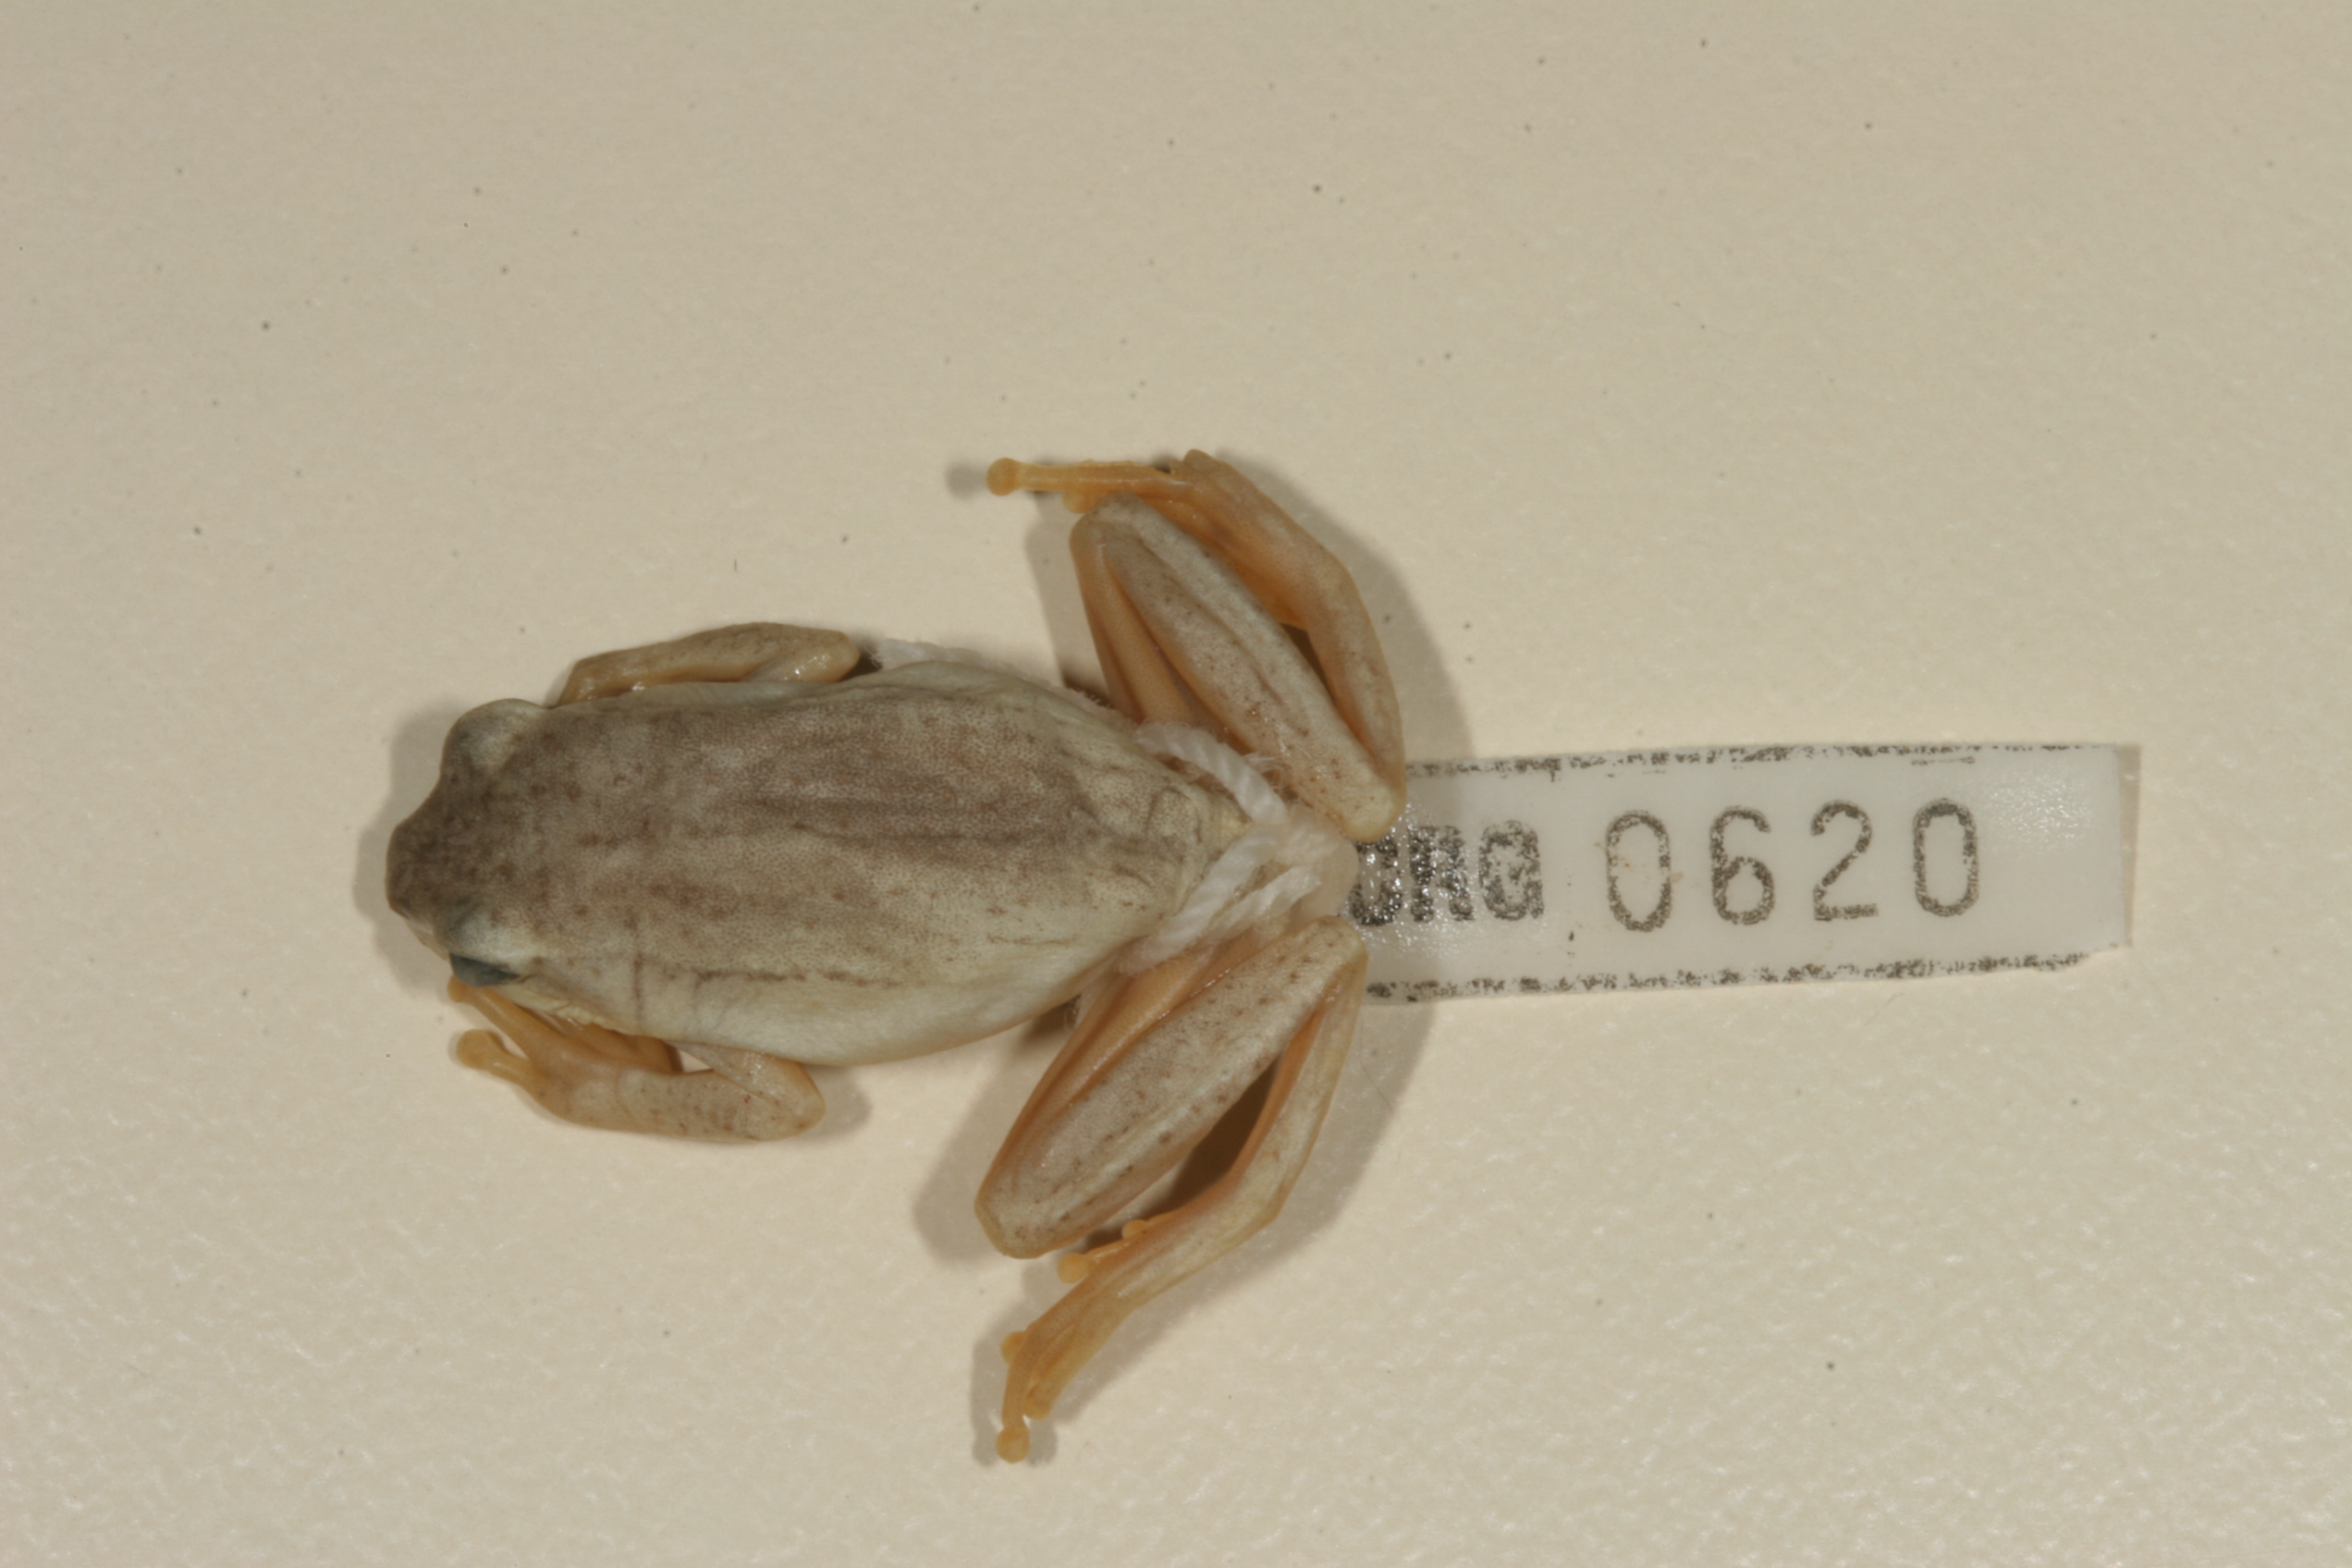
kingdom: Animalia
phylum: Chordata
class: Amphibia
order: Anura
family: Hyperoliidae
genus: Hyperolius
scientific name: Hyperolius marmoratus
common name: Painted reed frog
